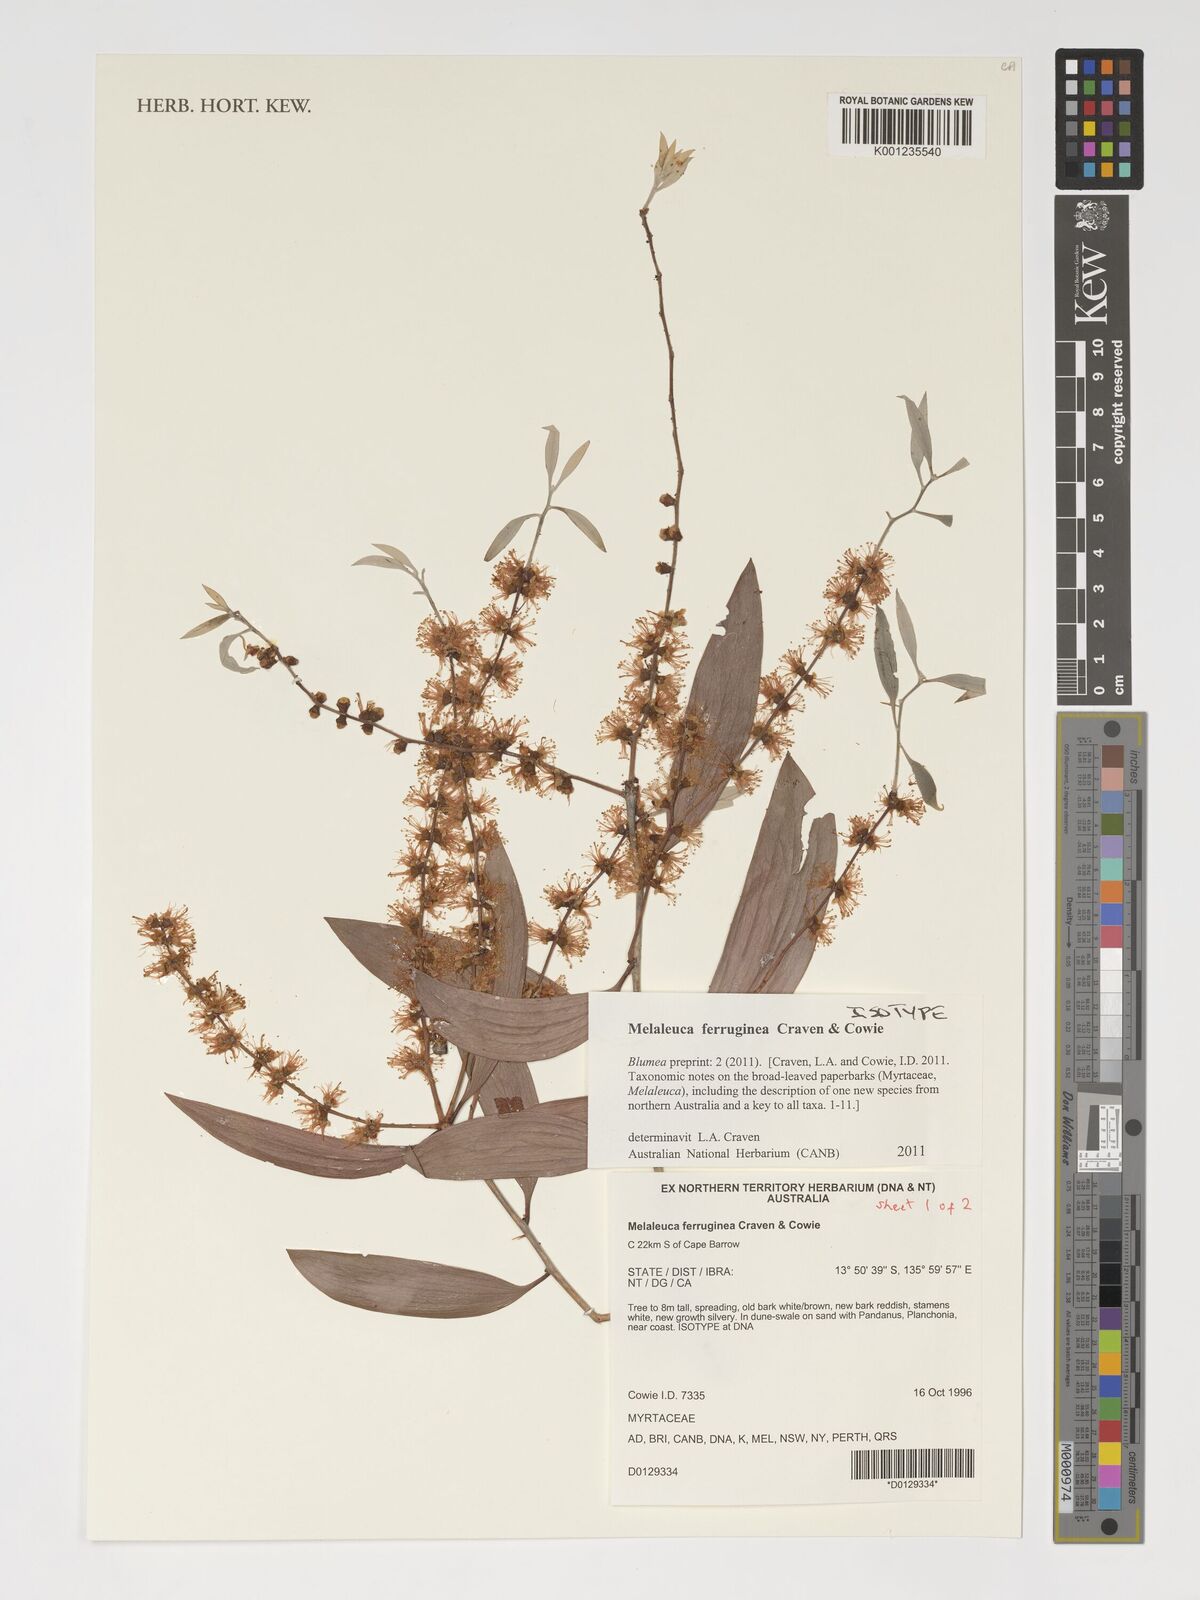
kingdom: Plantae
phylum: Tracheophyta
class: Magnoliopsida
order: Myrtales
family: Myrtaceae
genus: Melaleuca
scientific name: Melaleuca ferruginea
